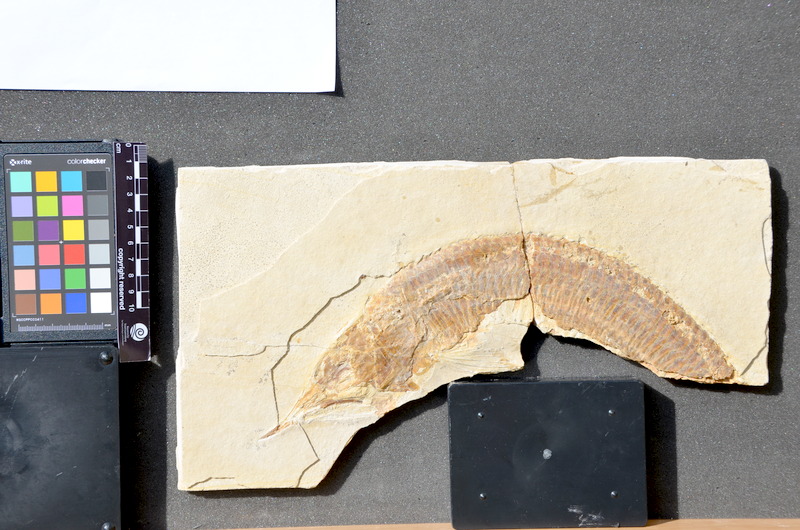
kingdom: Animalia
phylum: Mollusca
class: Gastropoda
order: Pleurotomariida
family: Phymatopleuridae
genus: Worthenia
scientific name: Worthenia Pleurotomaria angulata
